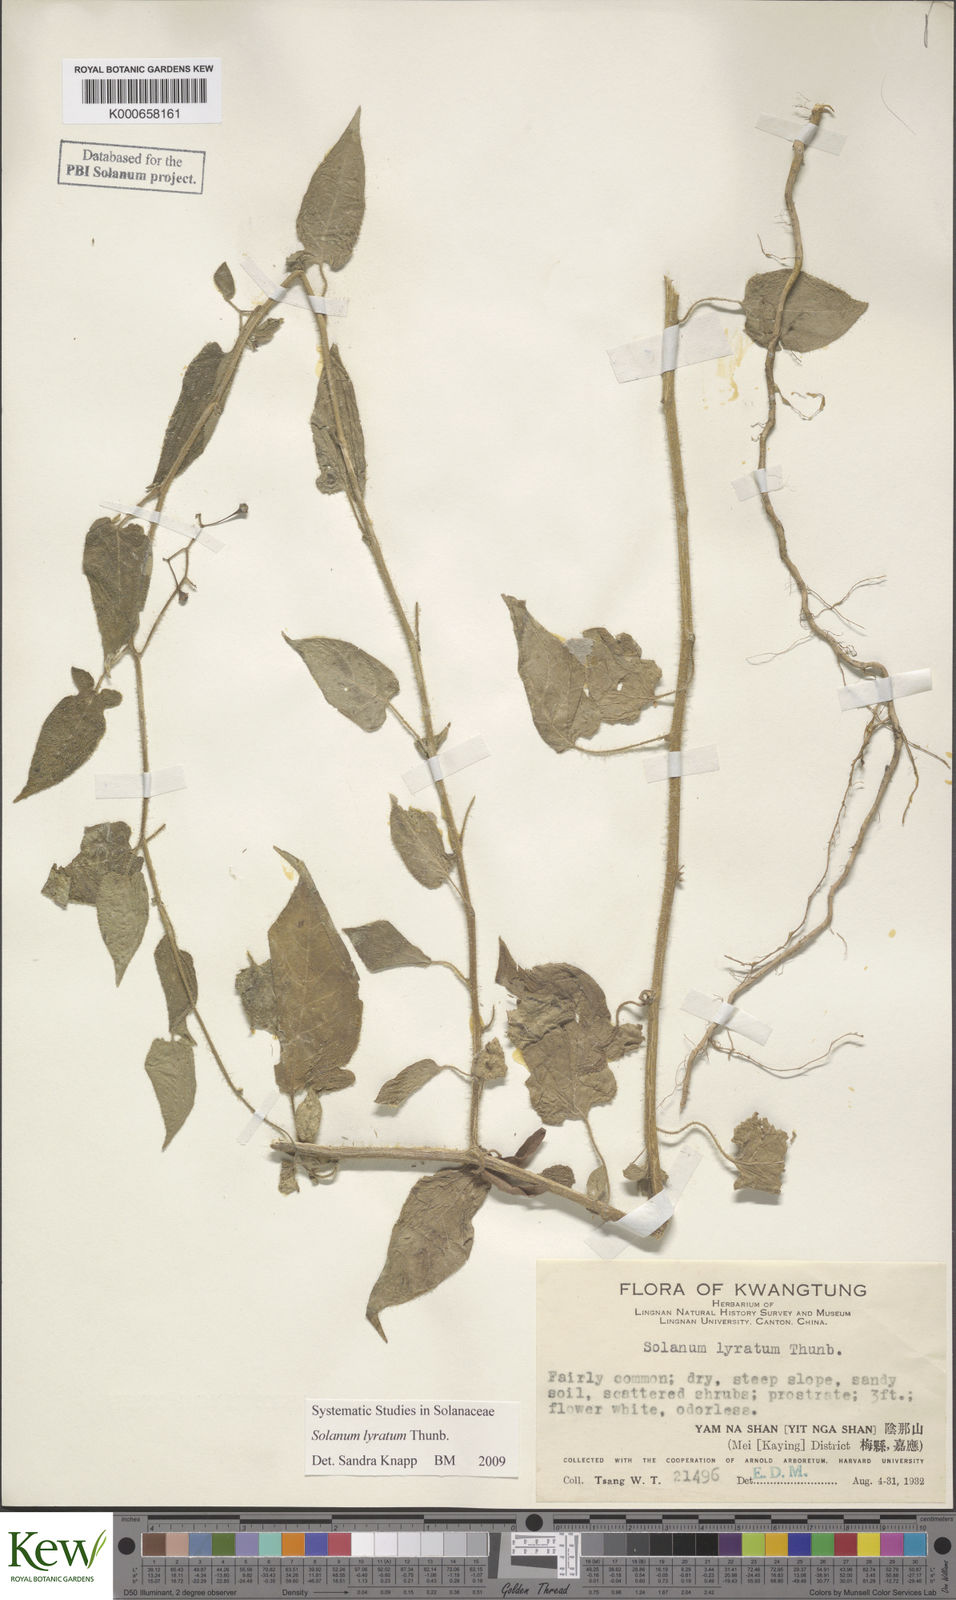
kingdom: Plantae
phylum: Tracheophyta
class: Magnoliopsida
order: Solanales
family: Solanaceae
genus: Solanum
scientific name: Solanum lyratum
